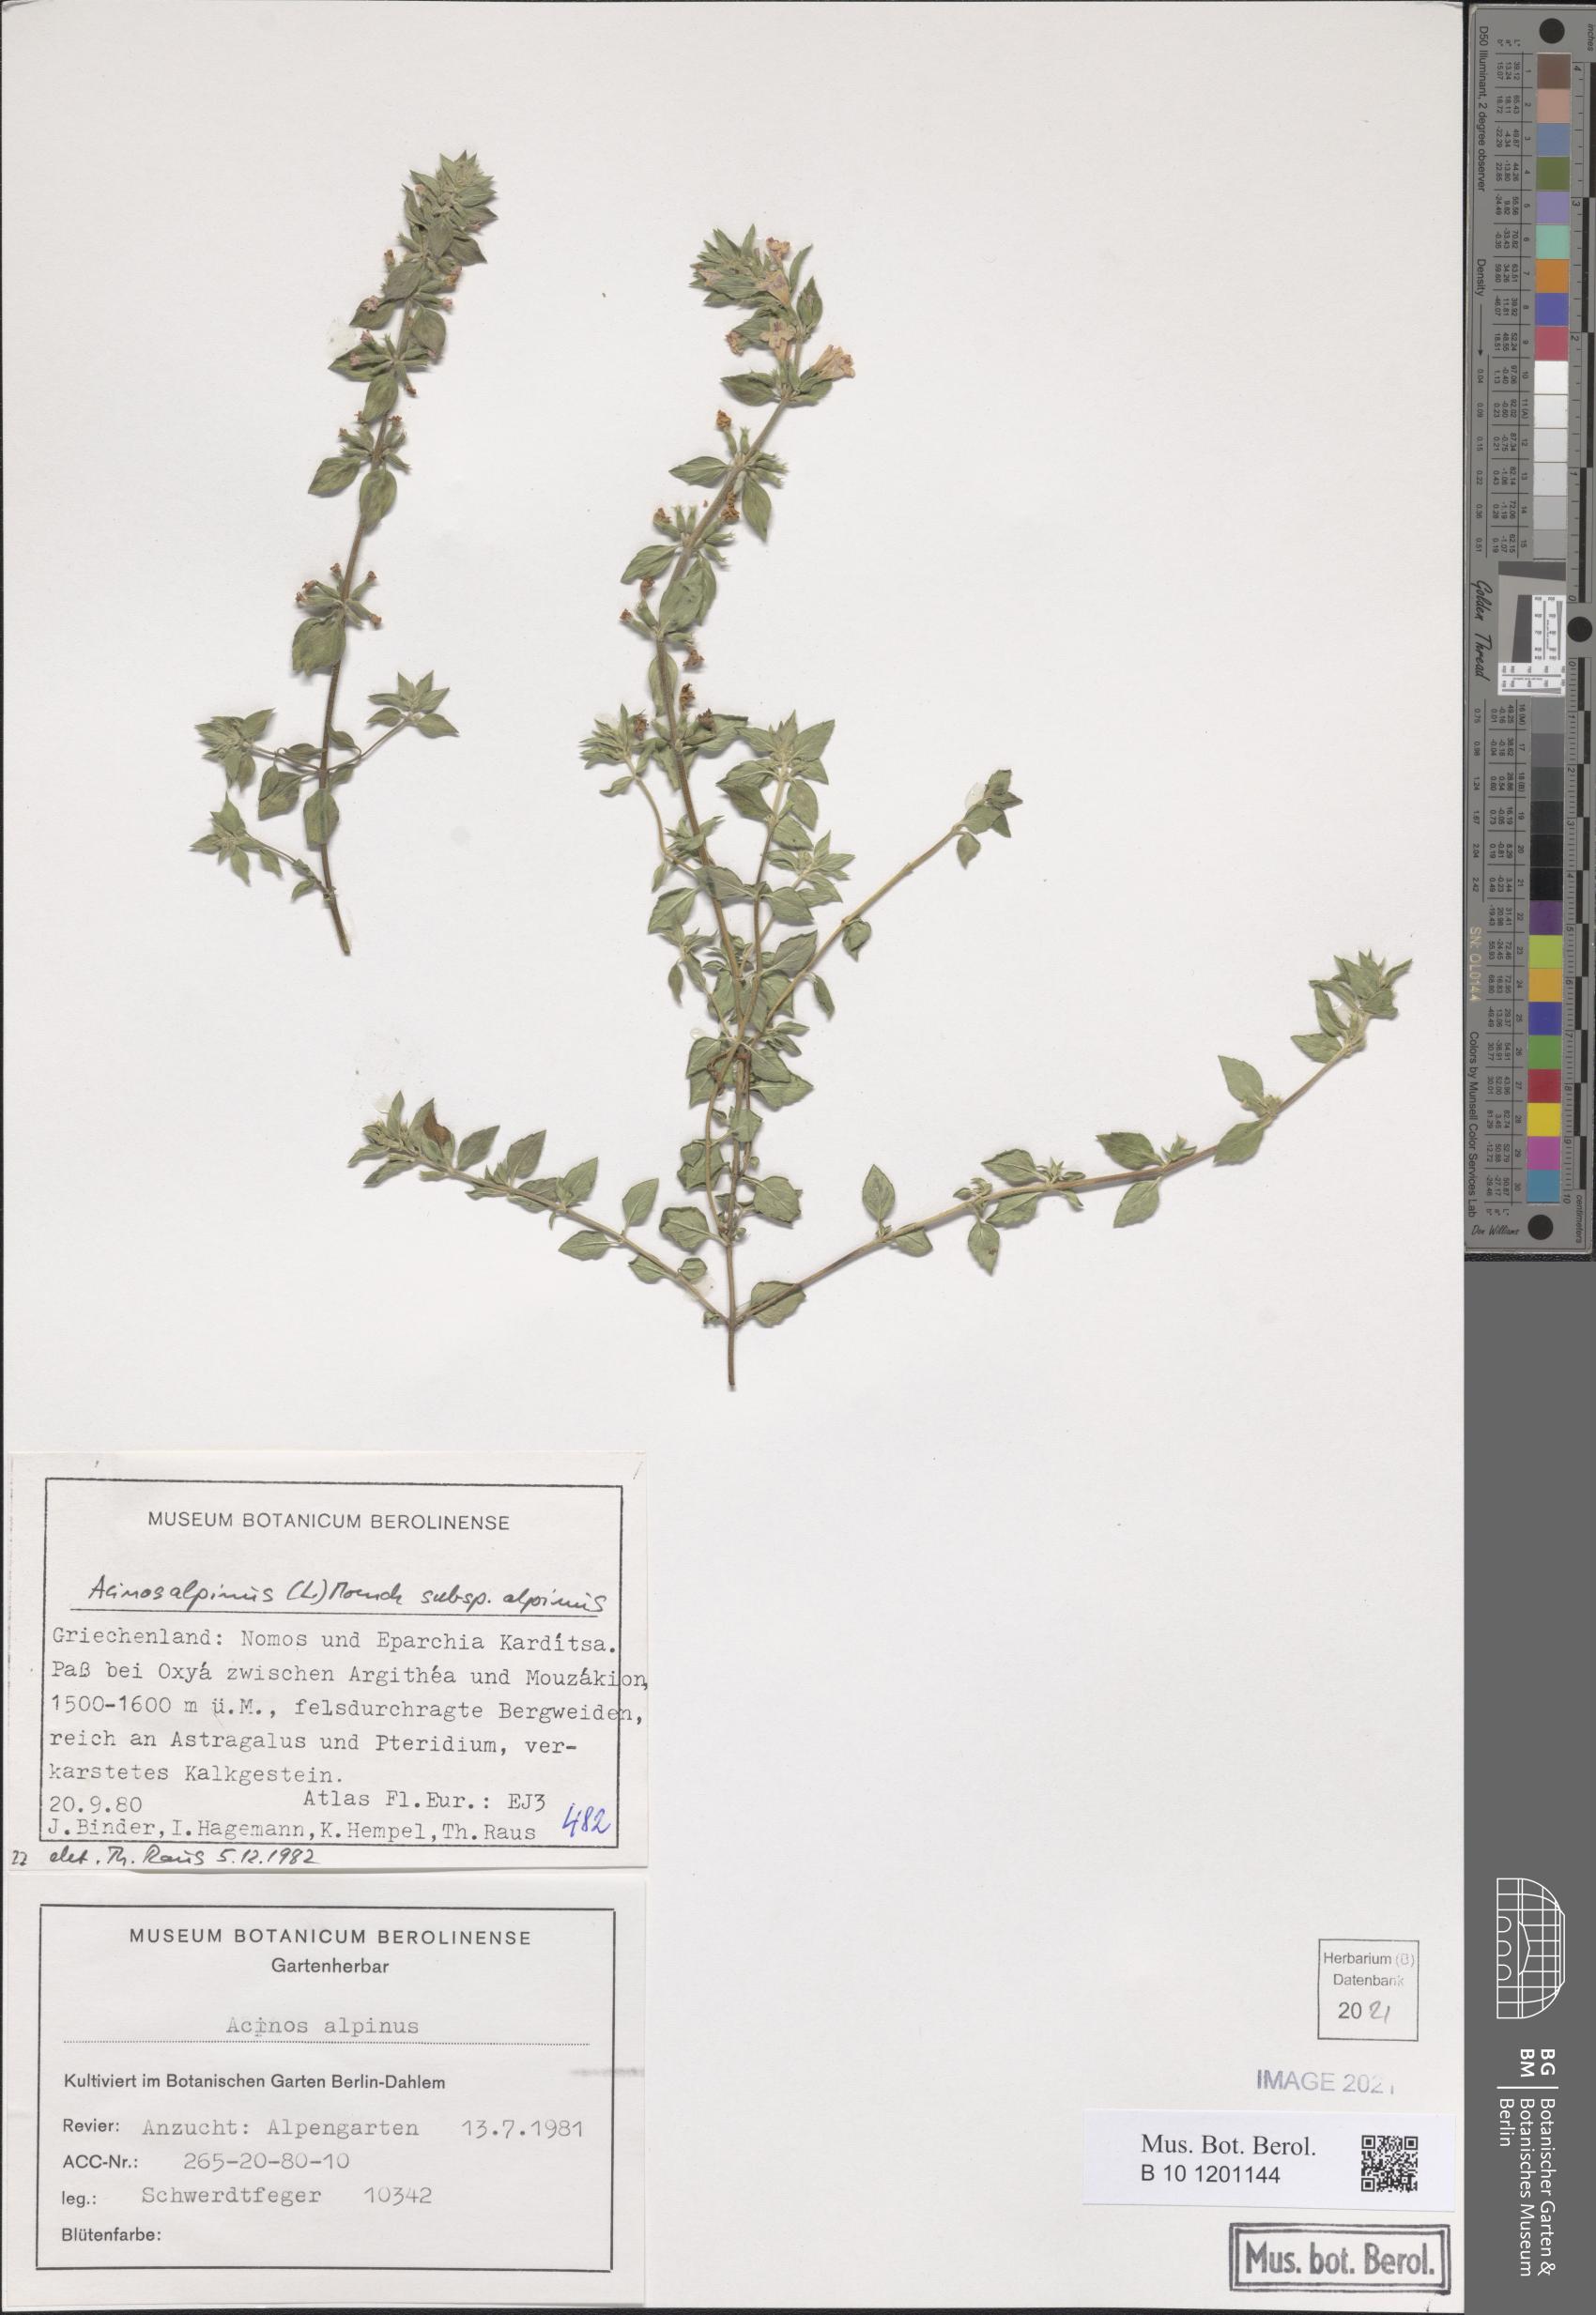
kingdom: Plantae
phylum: Tracheophyta
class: Magnoliopsida
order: Lamiales
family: Lamiaceae
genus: Clinopodium
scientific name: Clinopodium alpinum
